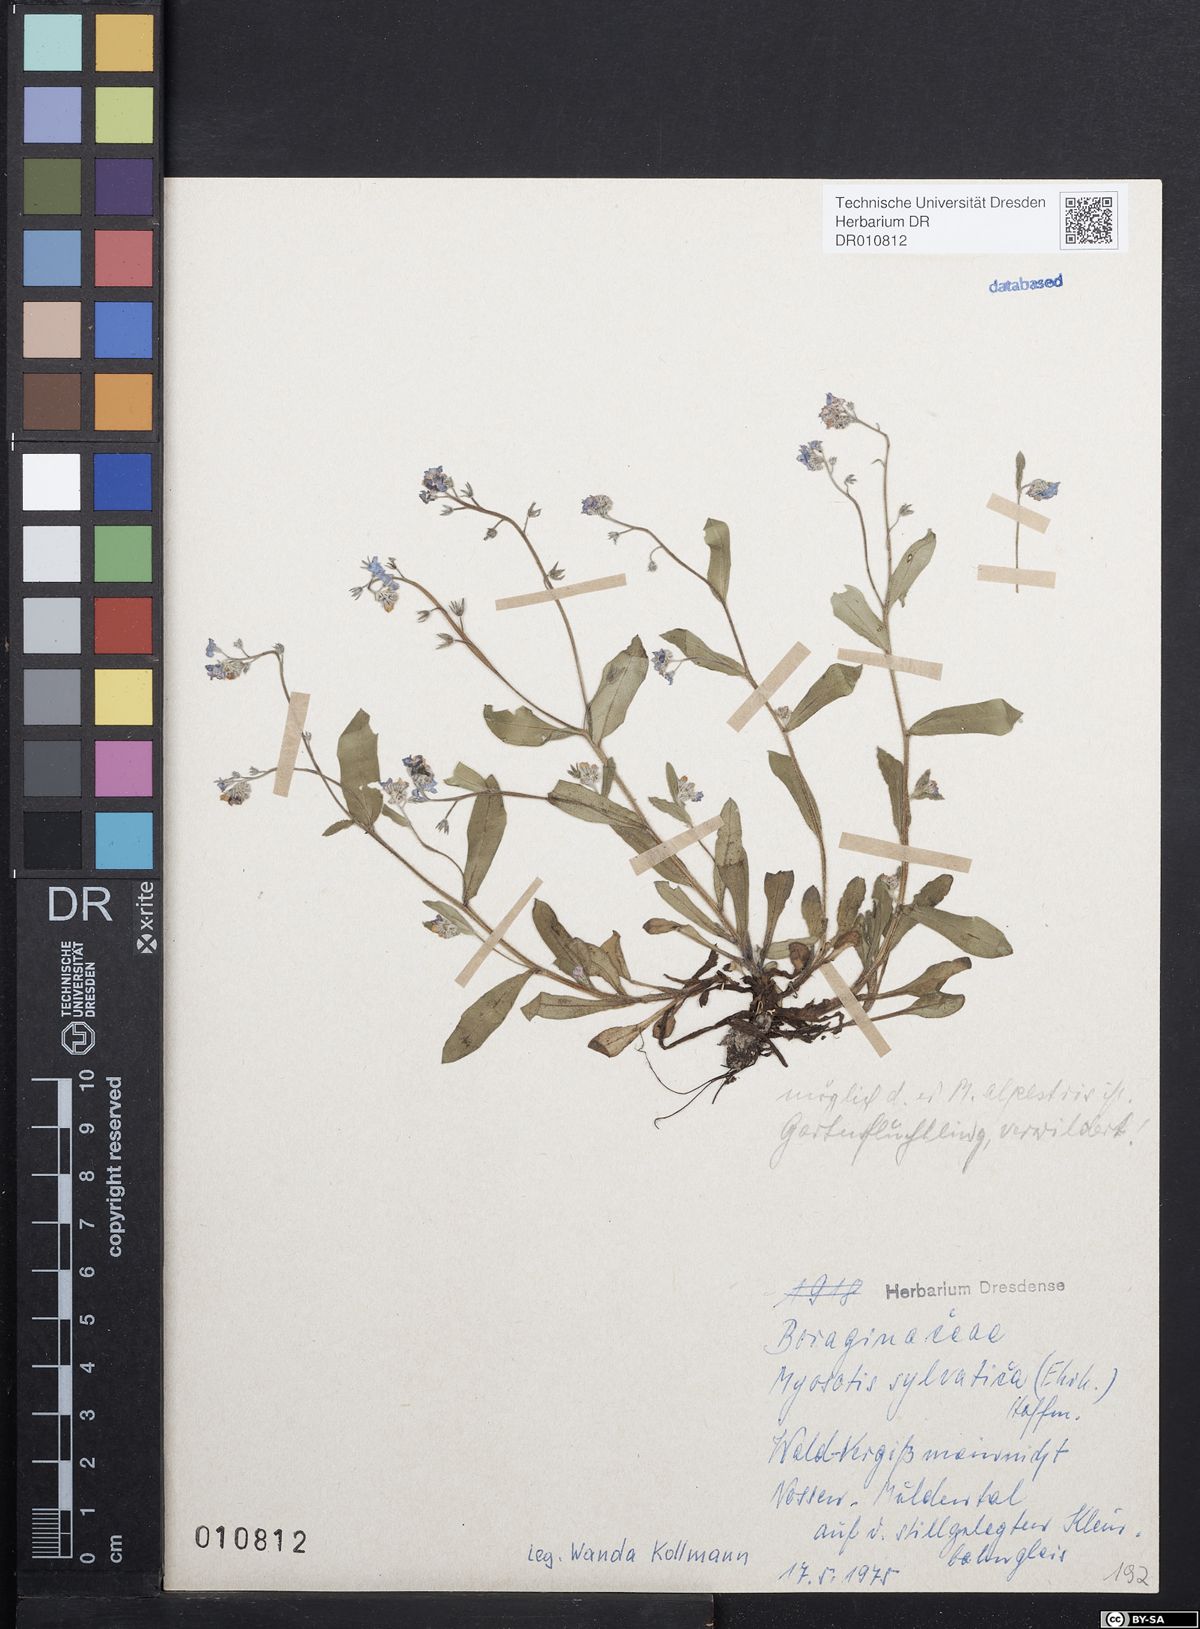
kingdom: Plantae
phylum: Tracheophyta
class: Magnoliopsida
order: Boraginales
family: Boraginaceae
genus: Myosotis
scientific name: Myosotis sylvatica
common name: Wood forget-me-not
